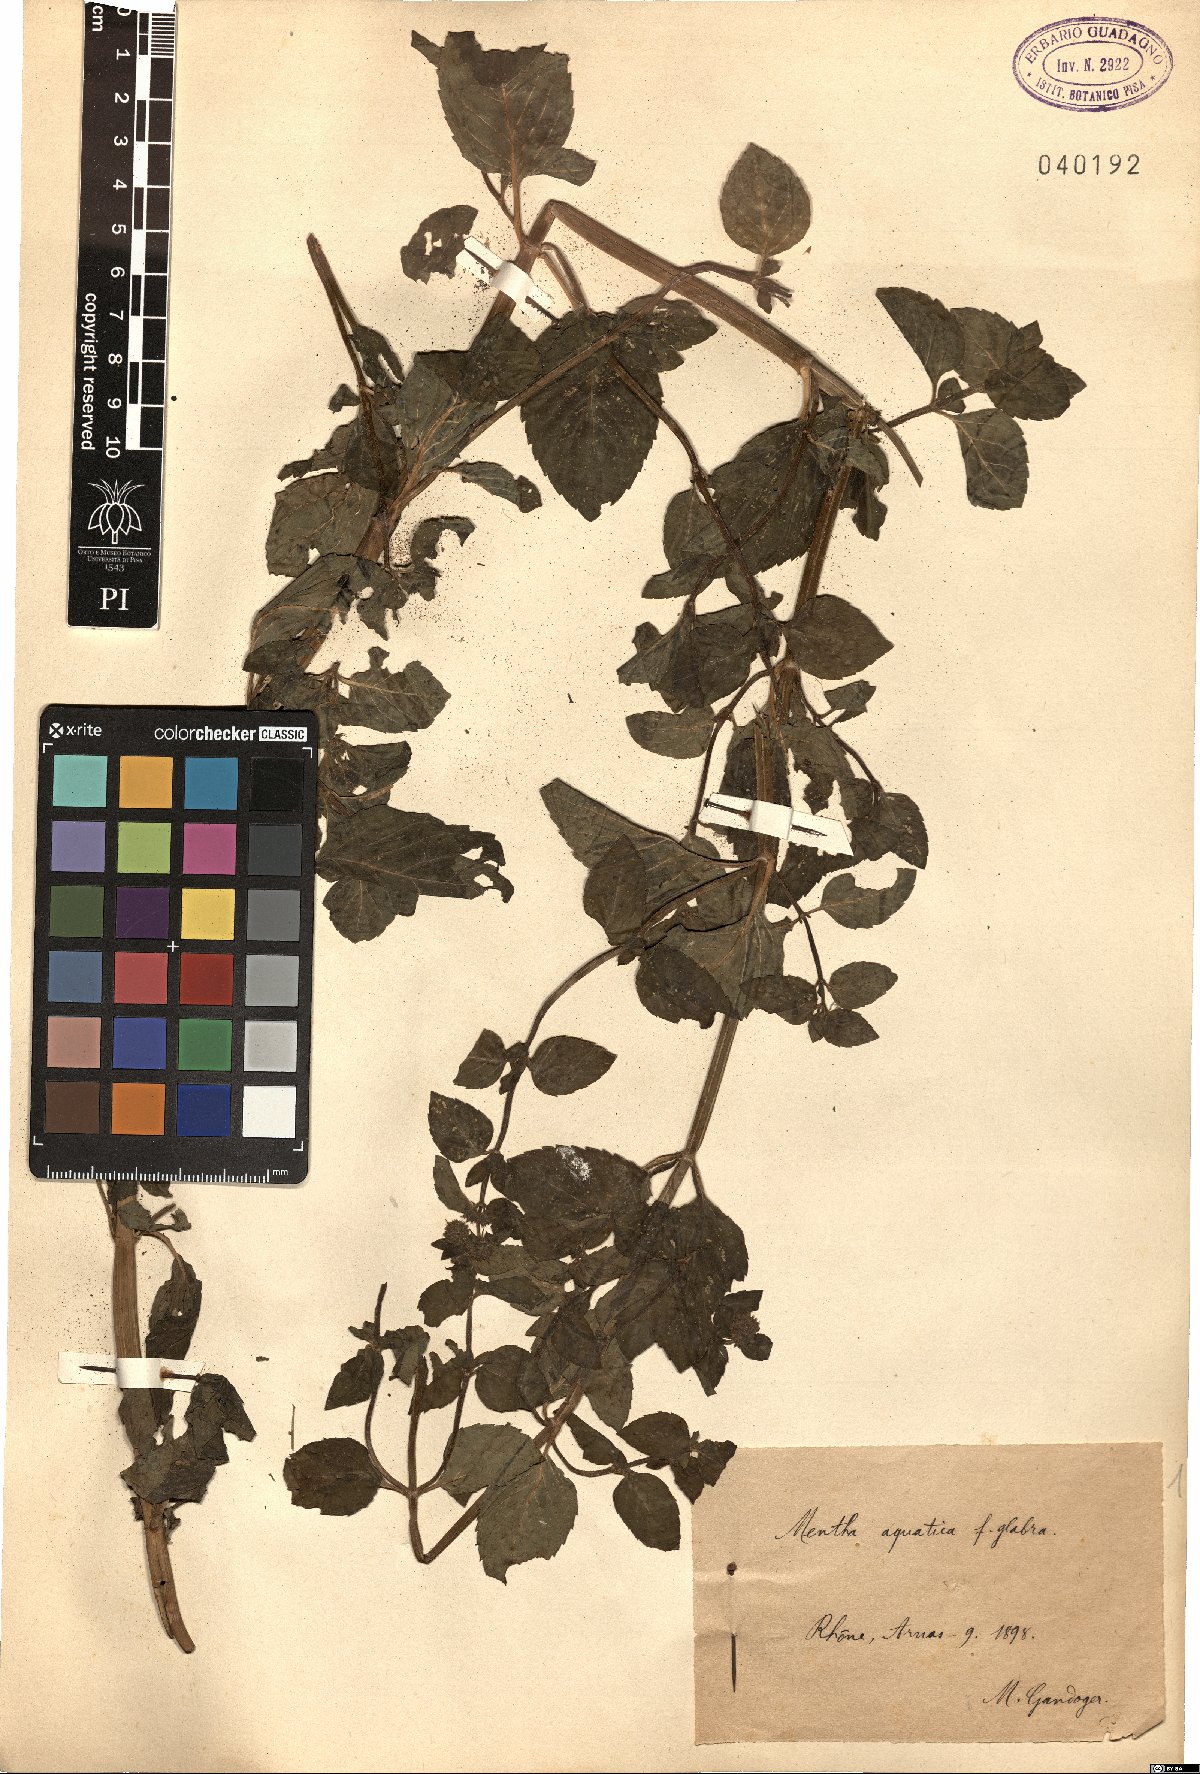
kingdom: Plantae
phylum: Tracheophyta
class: Magnoliopsida
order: Lamiales
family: Lamiaceae
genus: Mentha
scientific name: Mentha aquatica
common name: Water mint
